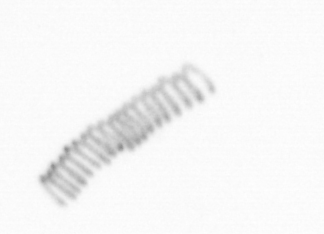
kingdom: Chromista
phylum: Ochrophyta
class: Bacillariophyceae
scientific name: Bacillariophyceae
